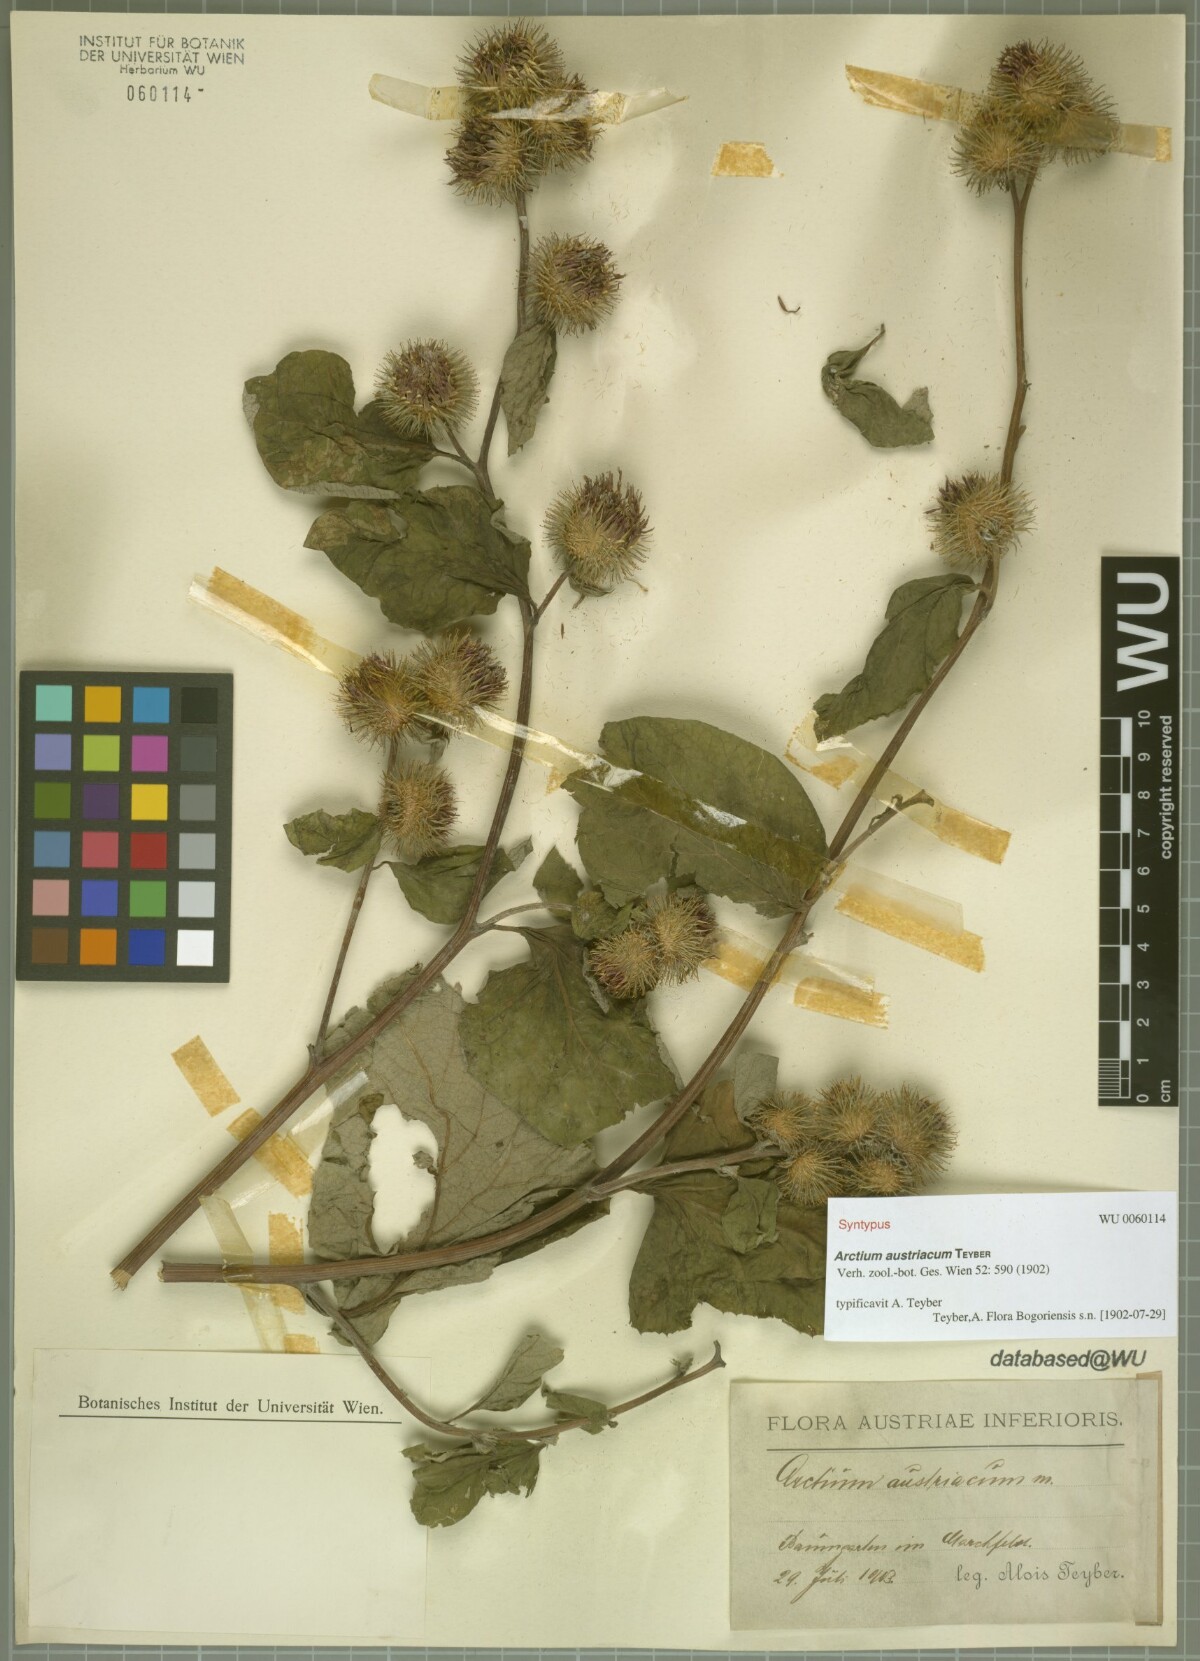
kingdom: Plantae
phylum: Tracheophyta
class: Magnoliopsida
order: Asterales
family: Asteraceae
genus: Arctium
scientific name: Arctium nemorosum
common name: Wood burdock
